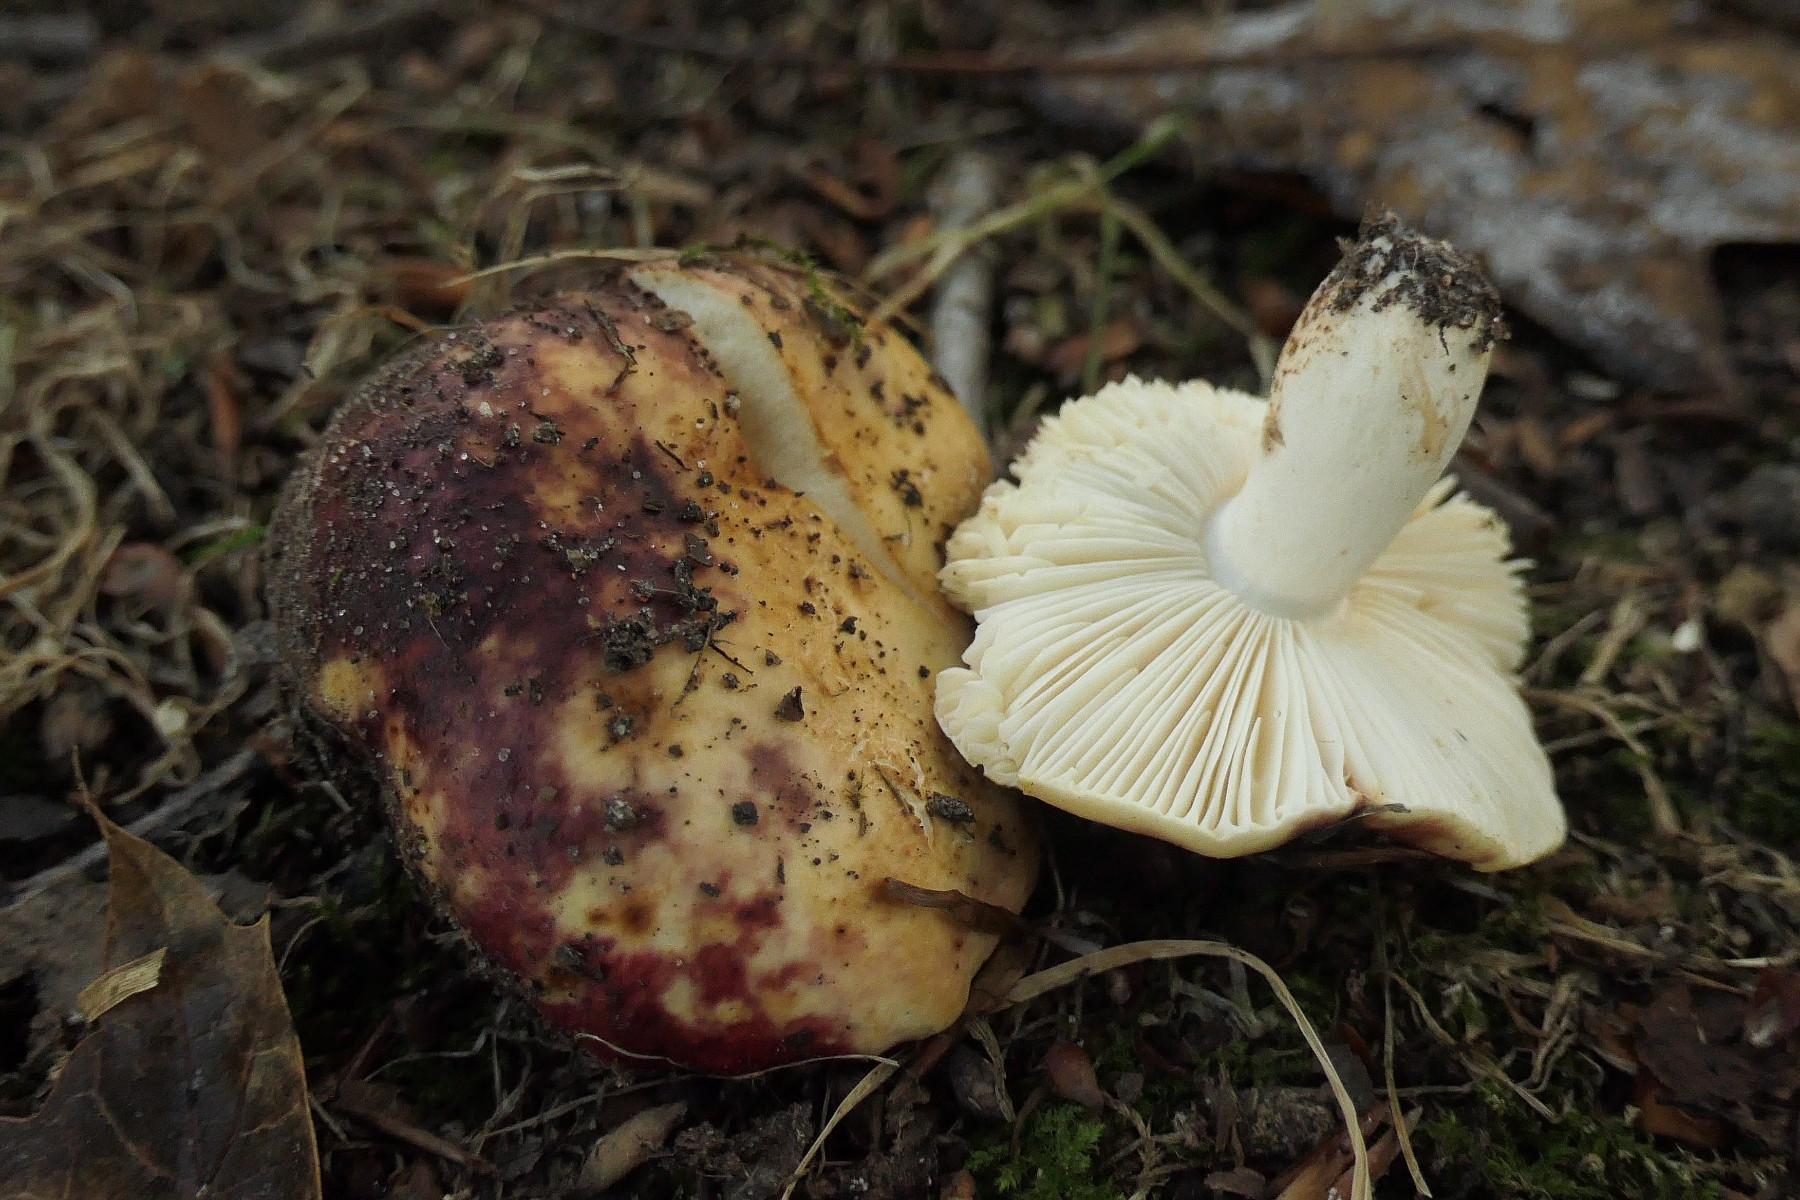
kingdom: Fungi
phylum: Basidiomycota
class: Agaricomycetes
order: Russulales
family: Russulaceae
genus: Russula
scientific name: Russula atropurpurea
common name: purpurbroget skørhat
